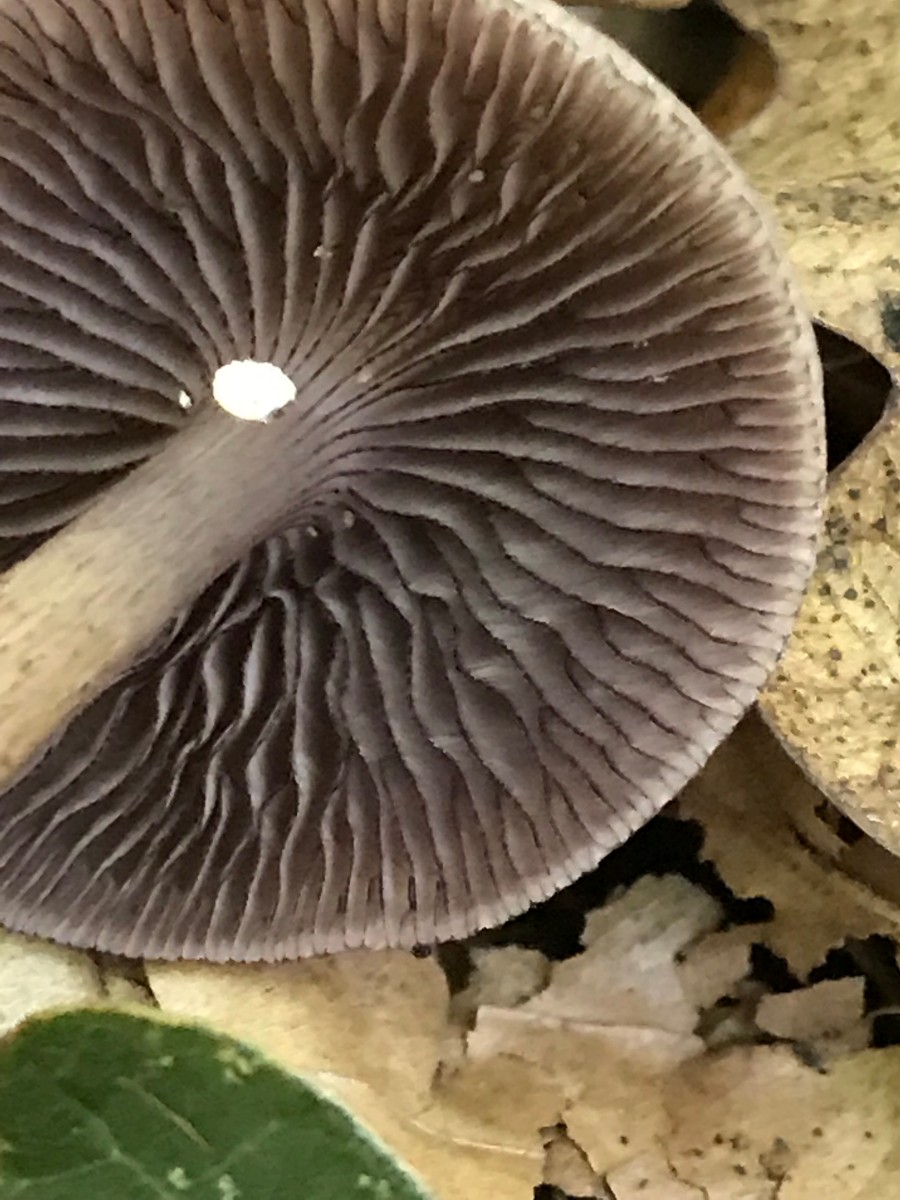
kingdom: Fungi
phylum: Basidiomycota
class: Agaricomycetes
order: Agaricales
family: Mycenaceae
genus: Mycena
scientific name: Mycena pelianthina
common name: mørkbladet huesvamp
